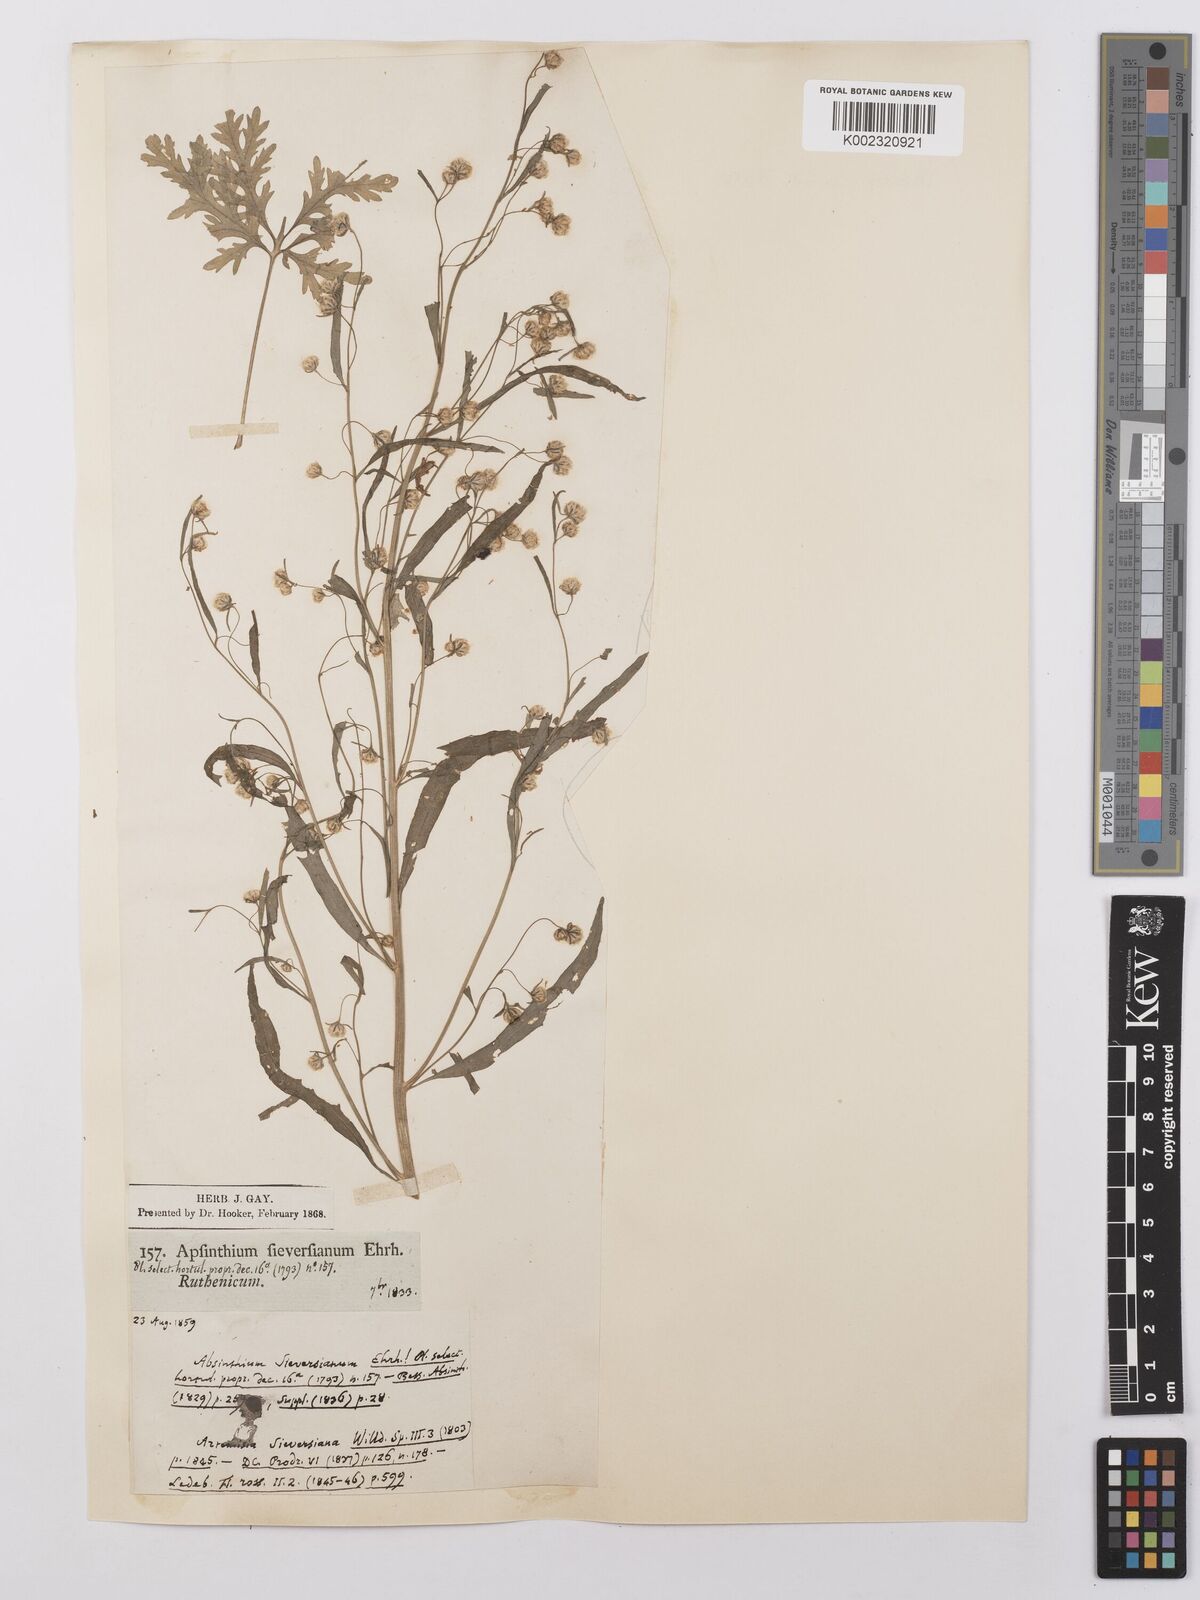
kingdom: Plantae
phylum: Tracheophyta
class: Magnoliopsida
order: Asterales
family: Asteraceae
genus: Artemisia
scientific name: Artemisia sieversiana
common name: Sieversian wormwood
